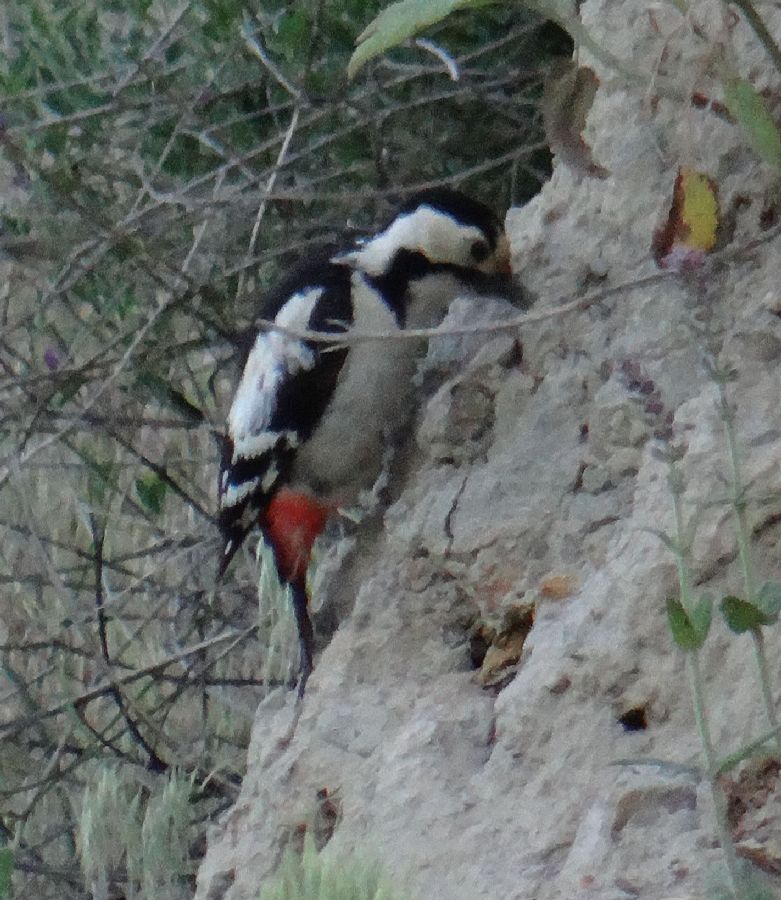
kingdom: Animalia
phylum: Chordata
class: Aves
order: Piciformes
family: Picidae
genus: Dendrocopos
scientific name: Dendrocopos syriacus
